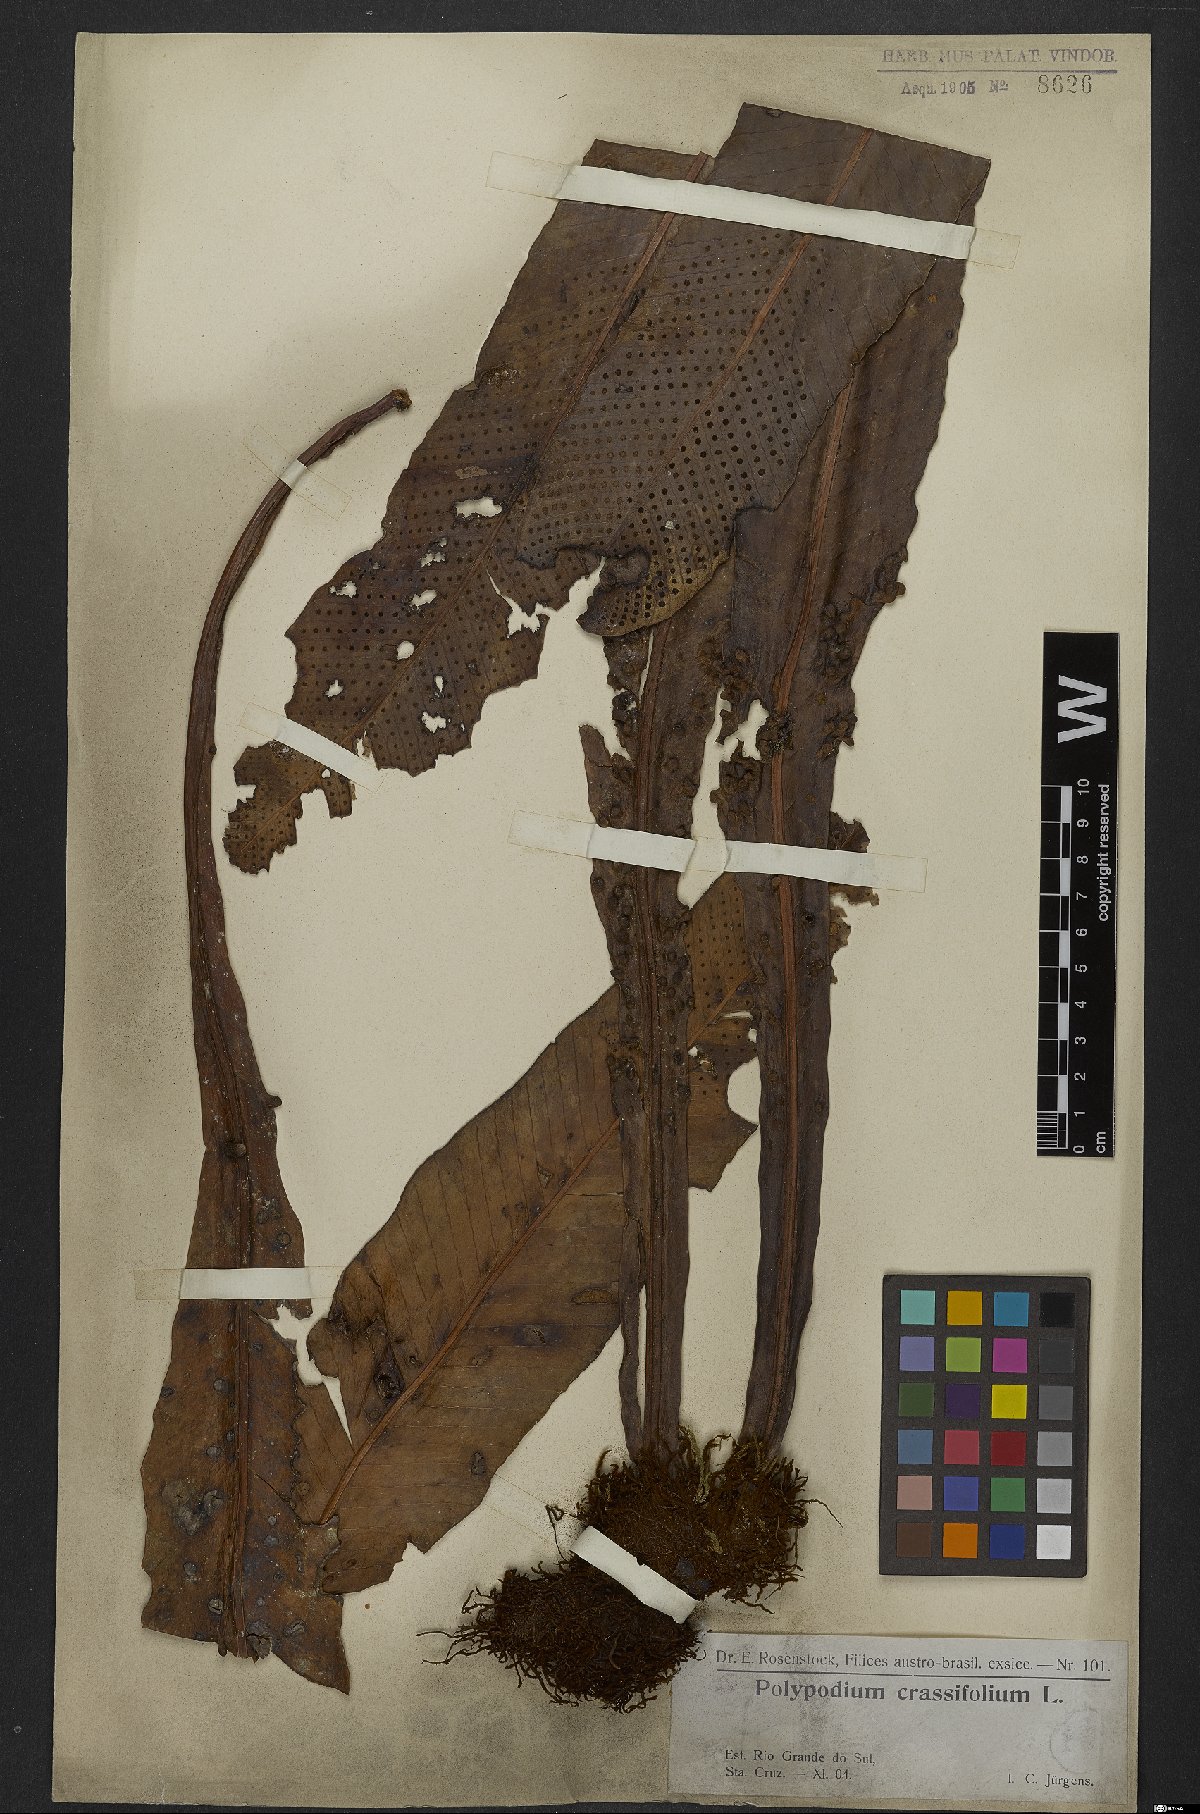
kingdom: Plantae
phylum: Tracheophyta
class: Polypodiopsida
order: Polypodiales
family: Polypodiaceae
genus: Niphidium
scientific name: Niphidium crassifolium
